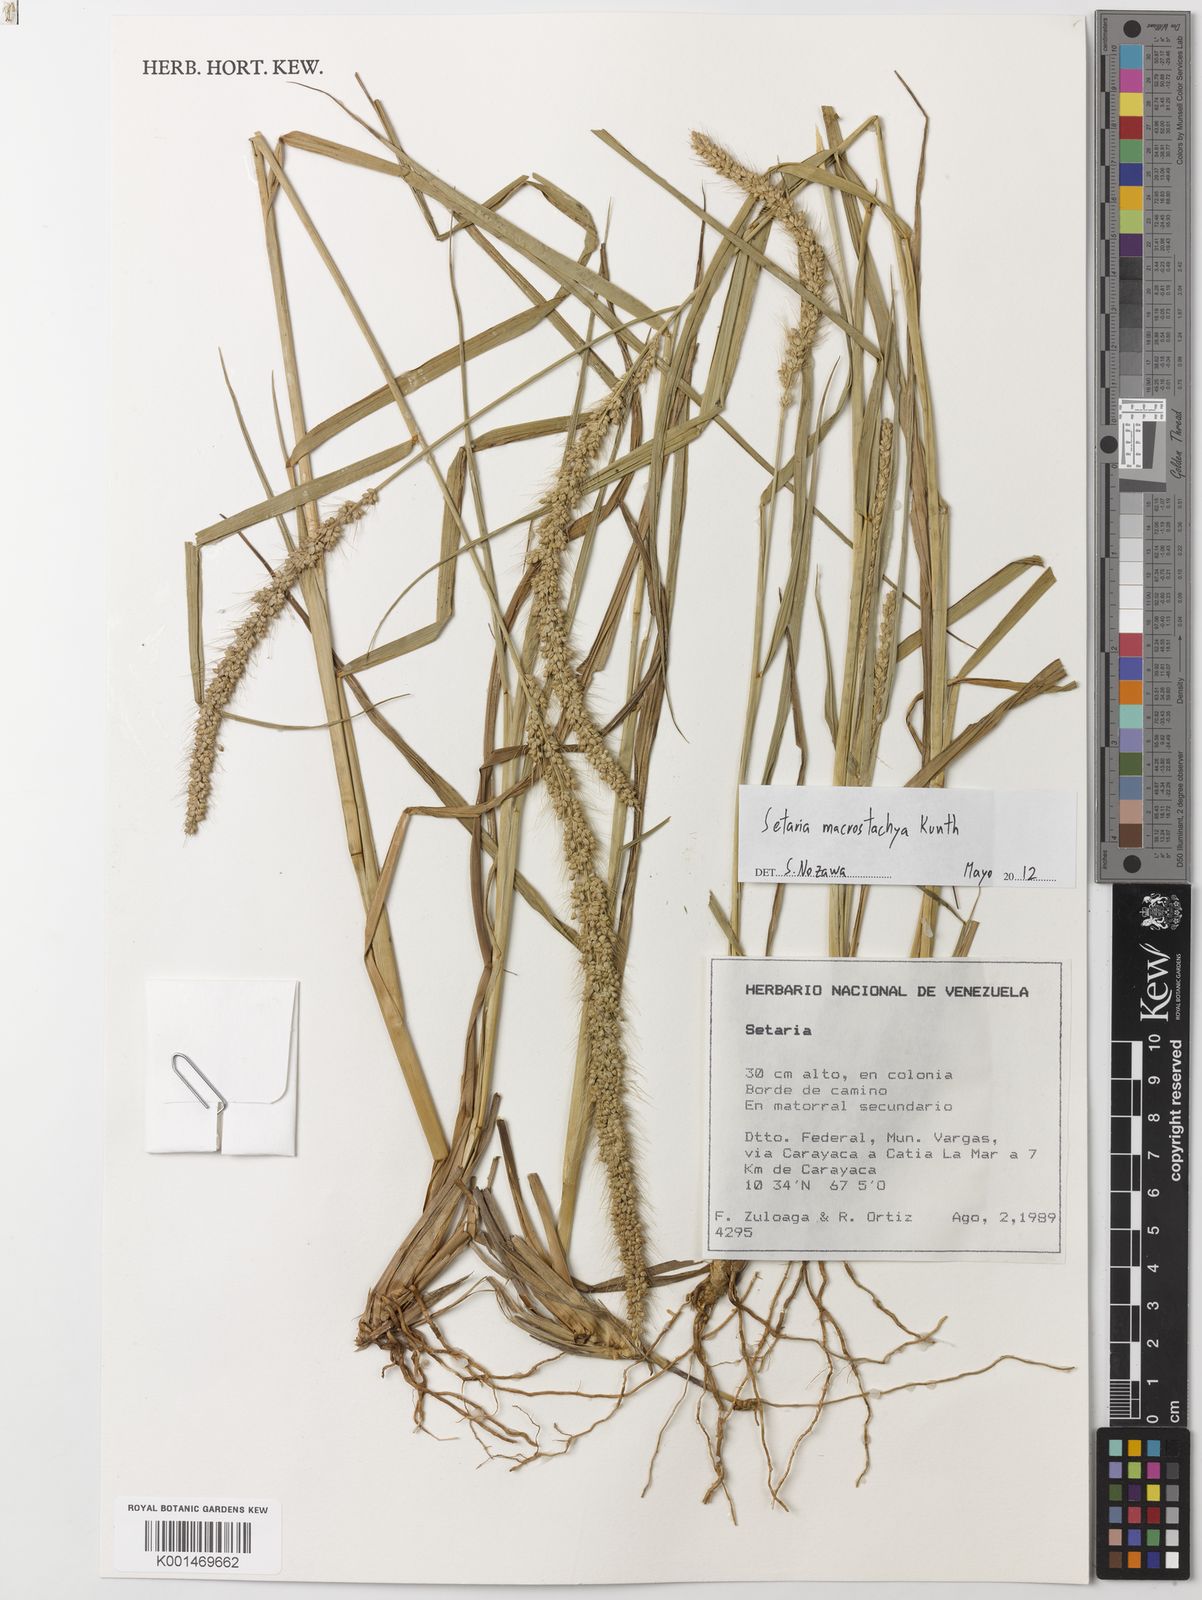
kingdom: Plantae
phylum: Tracheophyta
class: Liliopsida
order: Poales
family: Poaceae
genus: Setaria
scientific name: Setaria macrostachya
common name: Plains bristle grass
